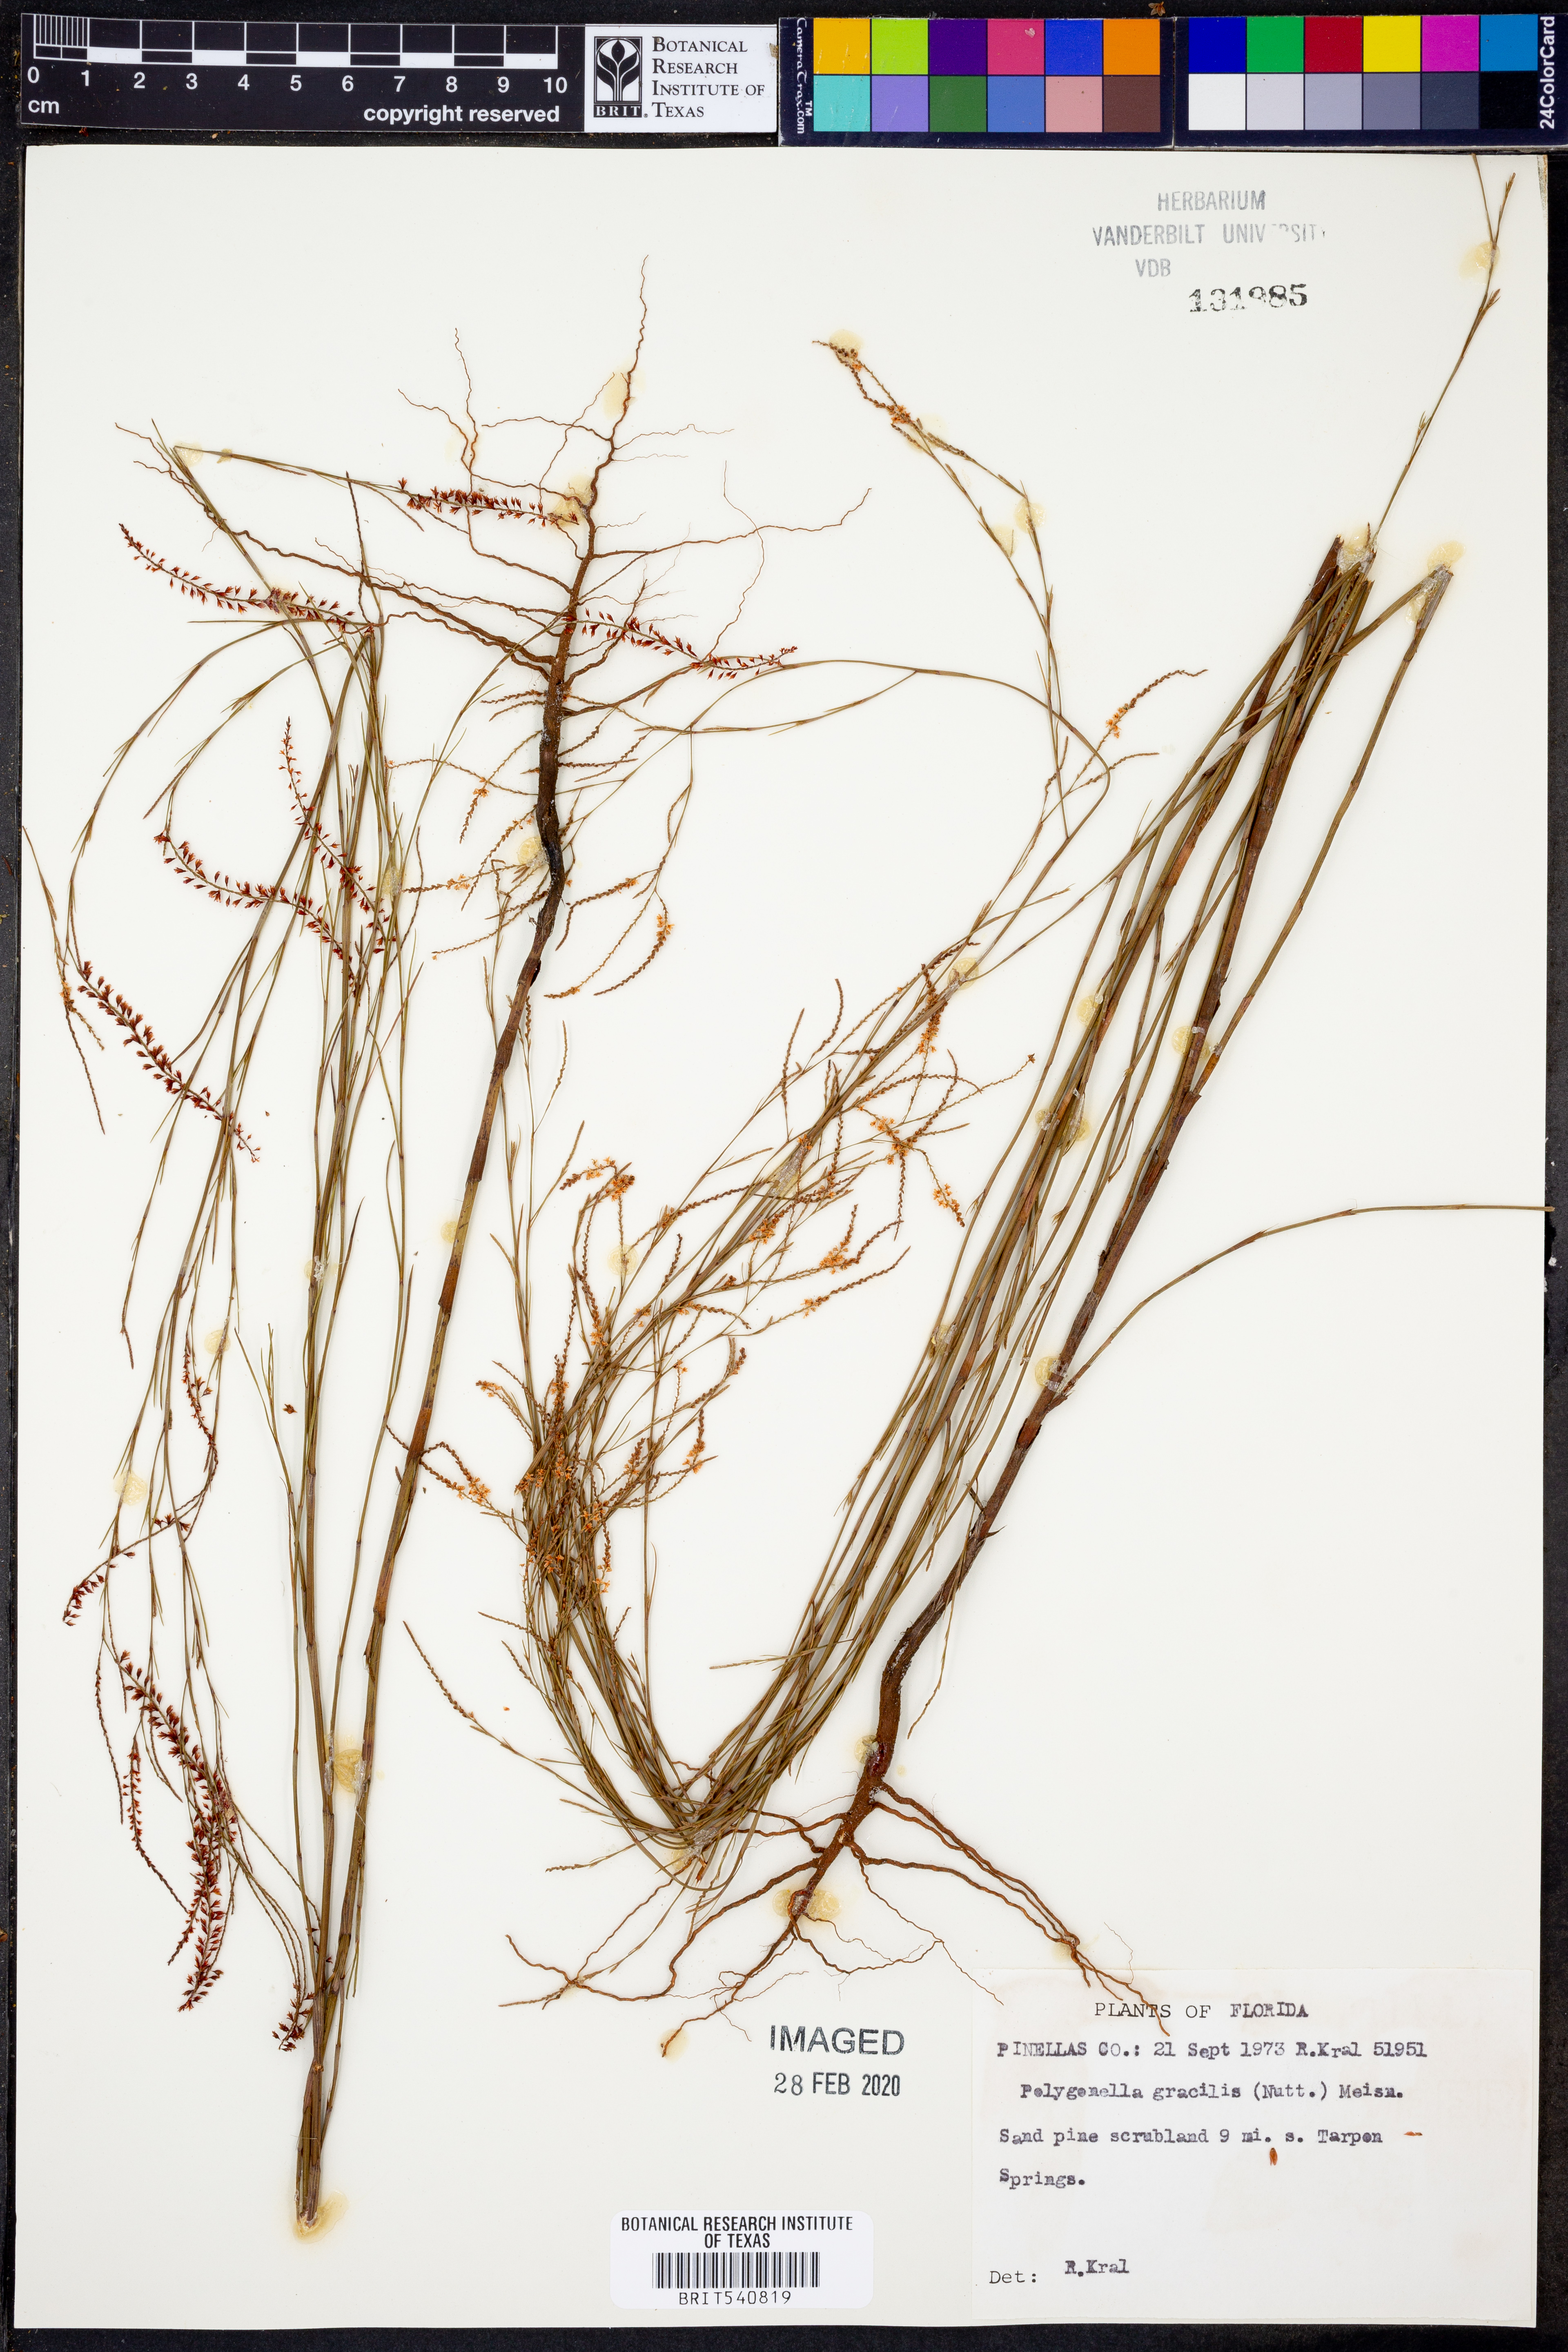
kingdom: Plantae
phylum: Tracheophyta
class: Magnoliopsida
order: Caryophyllales
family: Polygonaceae
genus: Polygonella
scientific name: Polygonella gracilis
